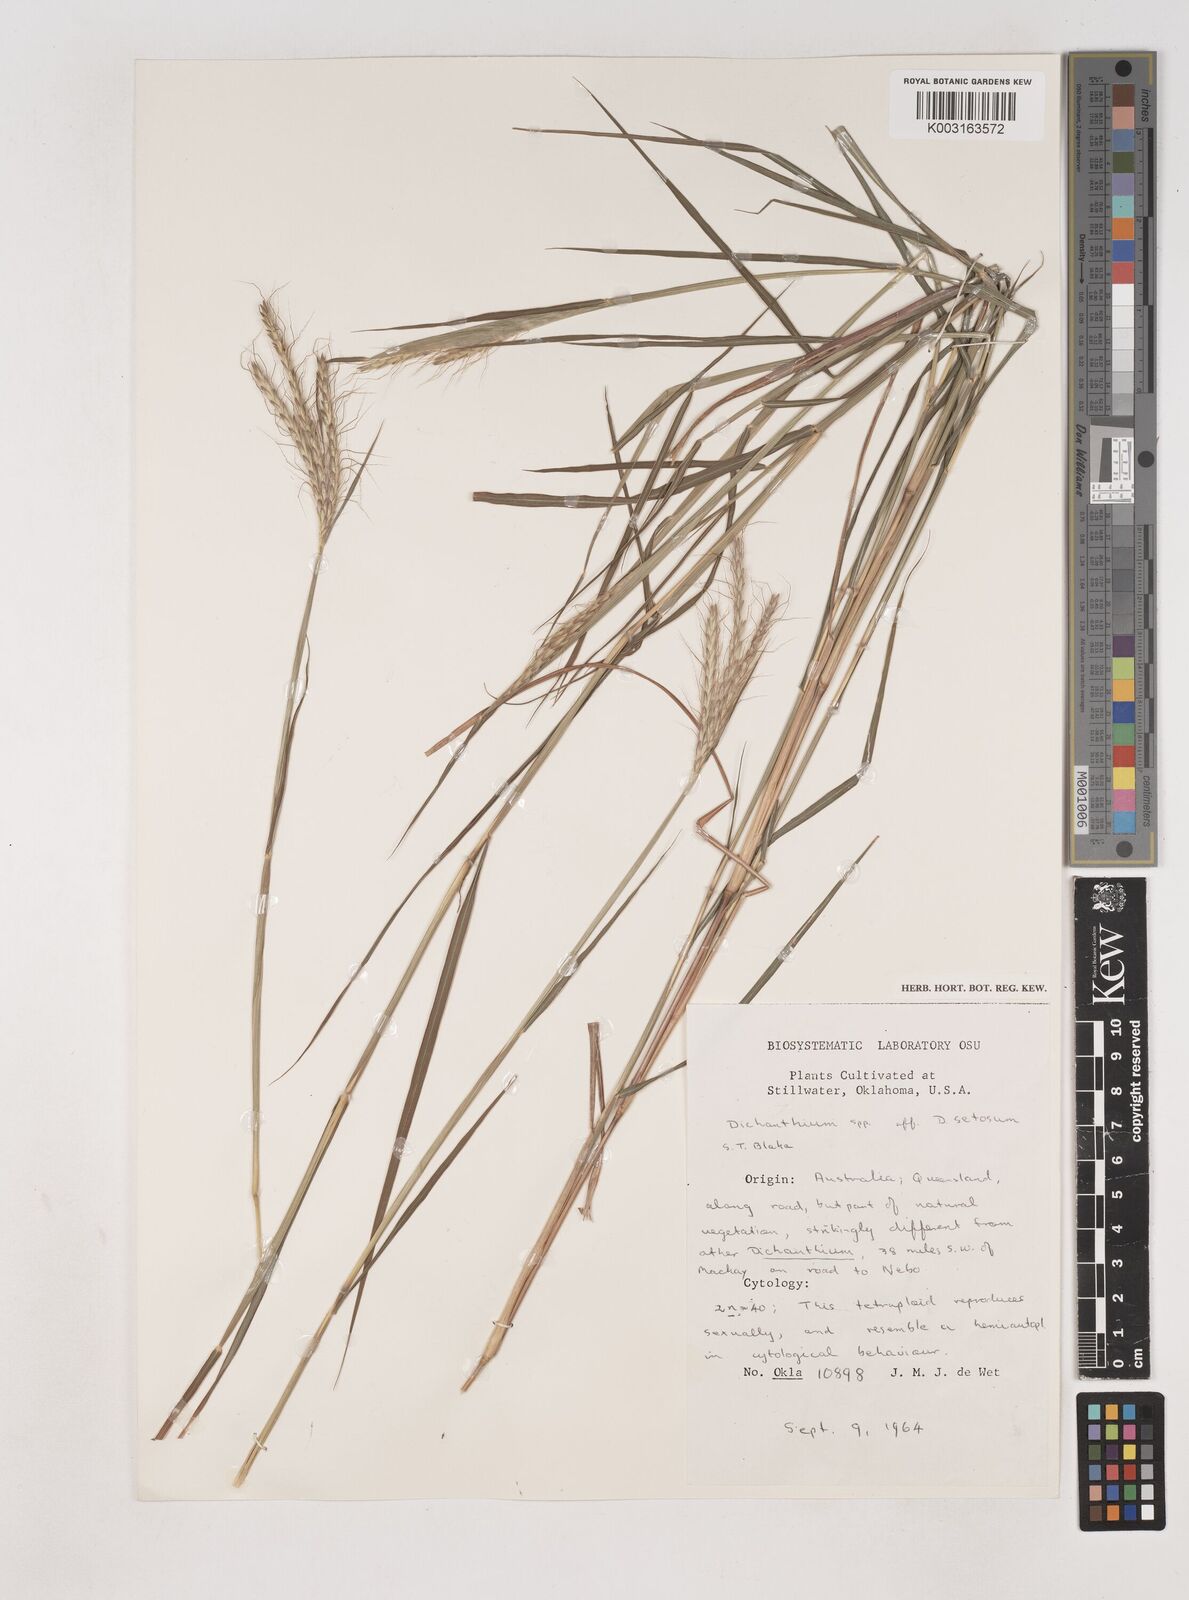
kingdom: Plantae
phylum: Tracheophyta
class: Liliopsida
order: Poales
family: Poaceae
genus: Dichanthium
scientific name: Dichanthium
